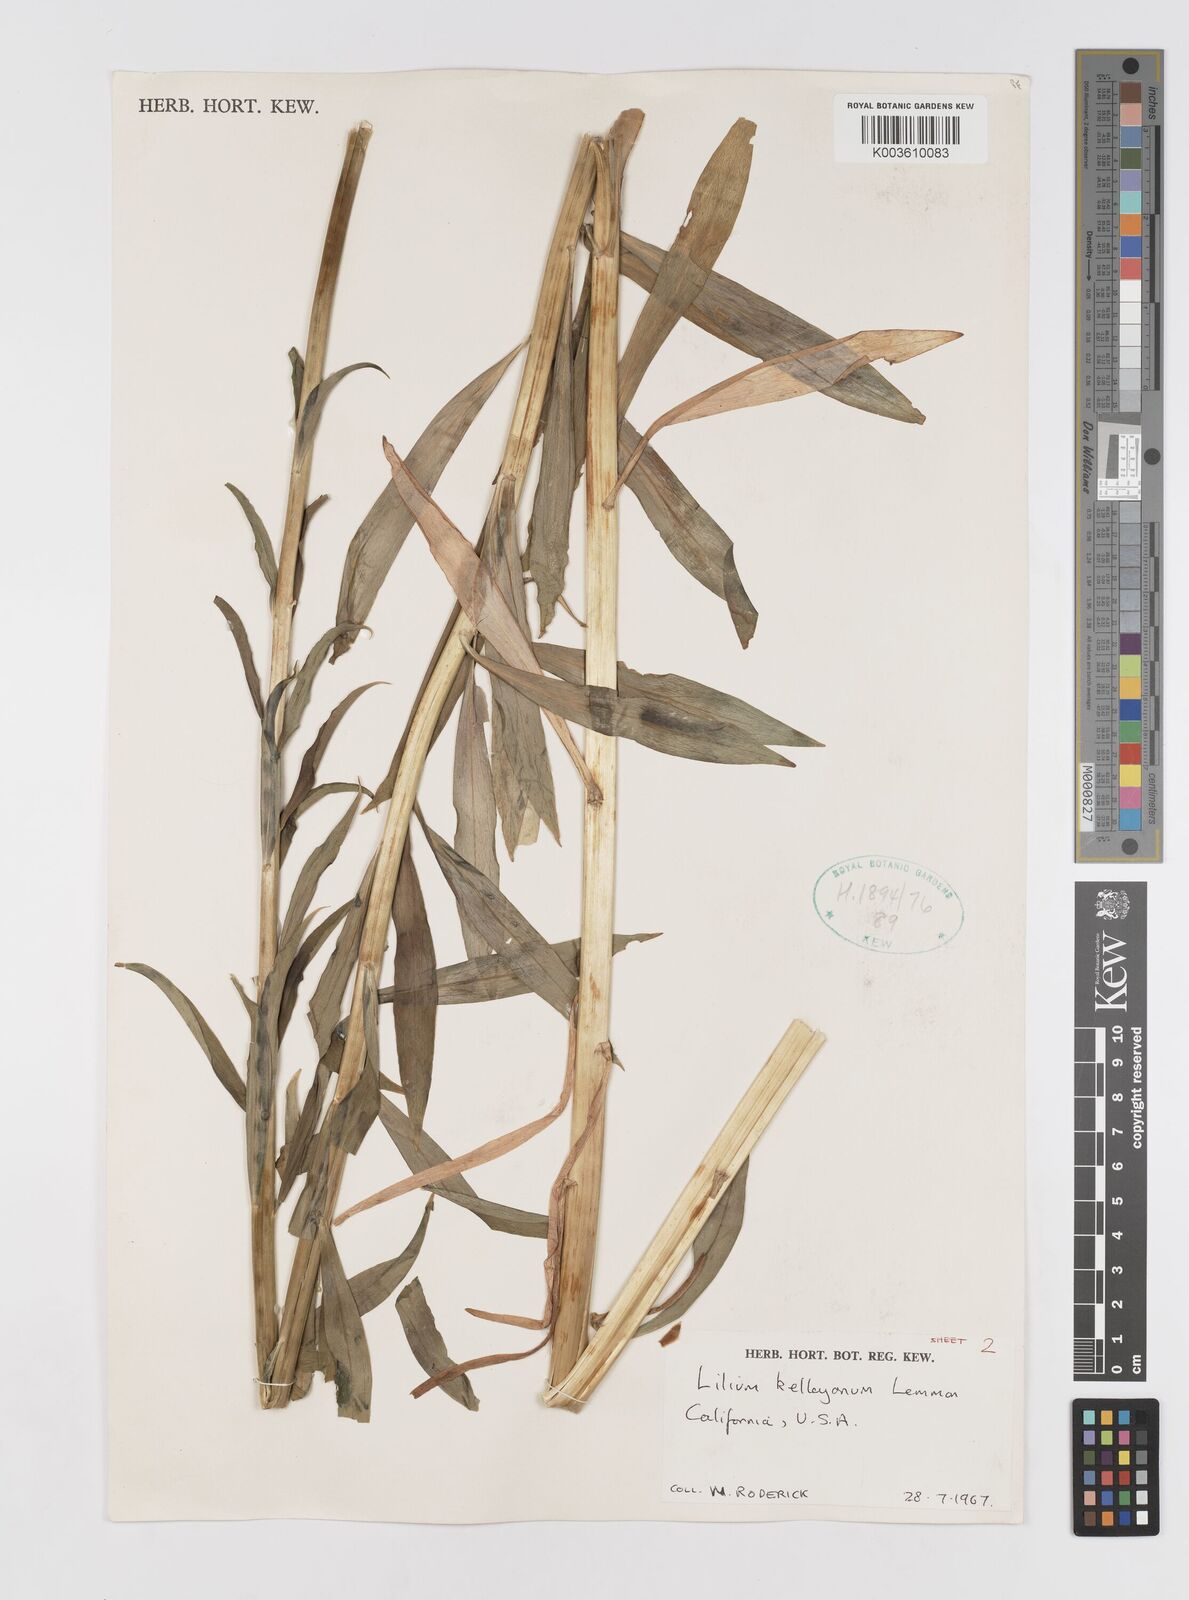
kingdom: Plantae
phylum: Tracheophyta
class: Liliopsida
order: Liliales
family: Liliaceae
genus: Lilium
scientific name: Lilium kelleyanum
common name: Kelley's lily
